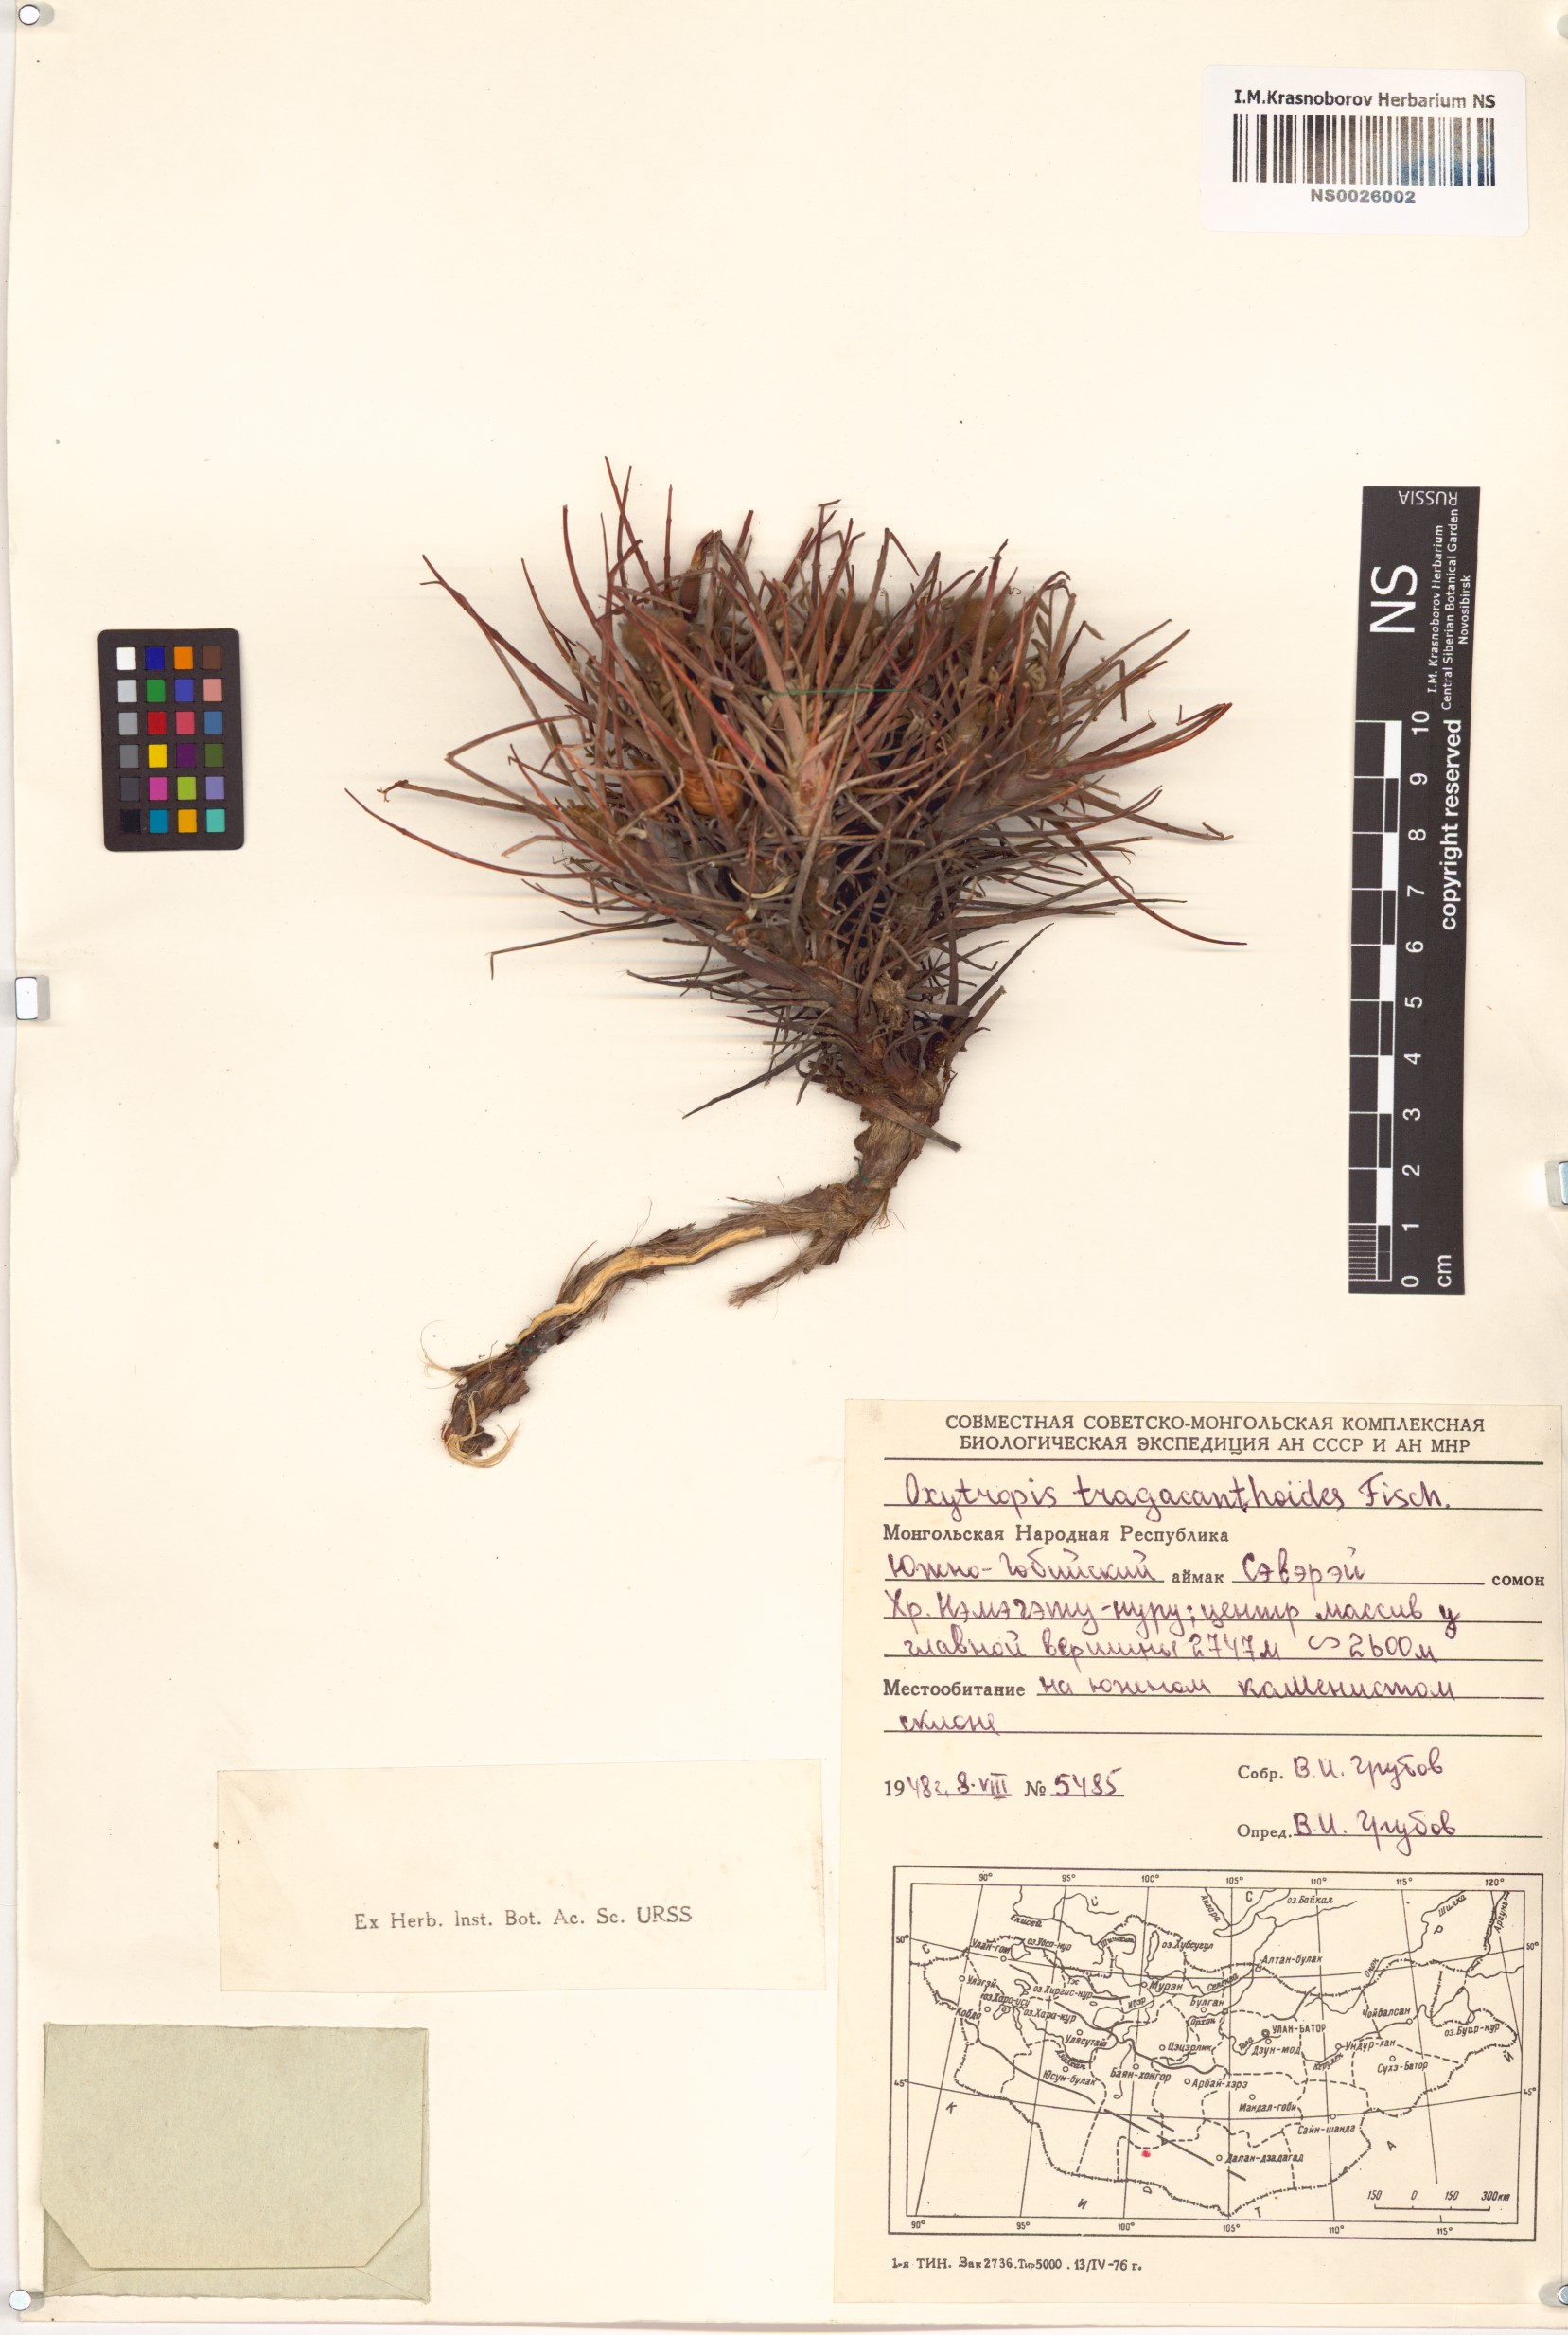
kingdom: Plantae
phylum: Tracheophyta
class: Magnoliopsida
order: Fabales
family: Fabaceae
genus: Oxytropis
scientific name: Oxytropis tragacanthoides
